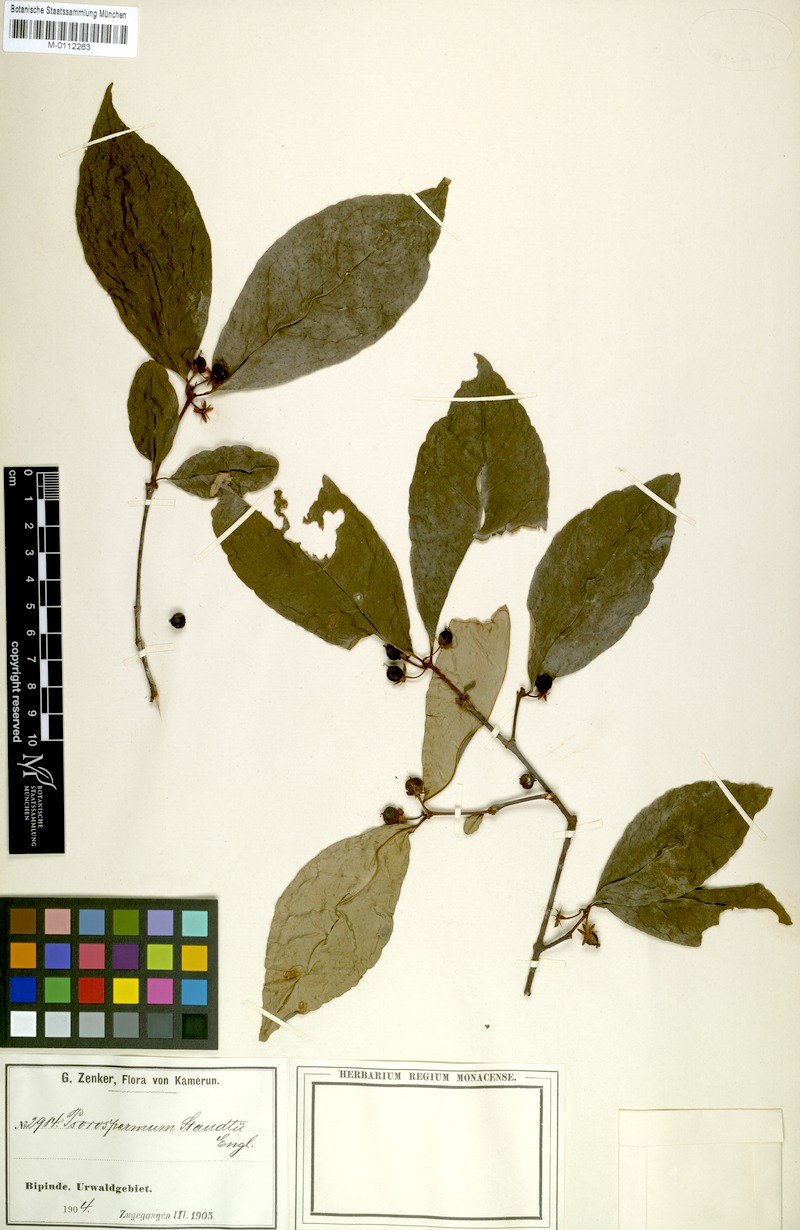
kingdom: Plantae
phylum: Tracheophyta
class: Magnoliopsida
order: Malpighiales
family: Hypericaceae
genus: Psorospermum
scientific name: Psorospermum staudtii
